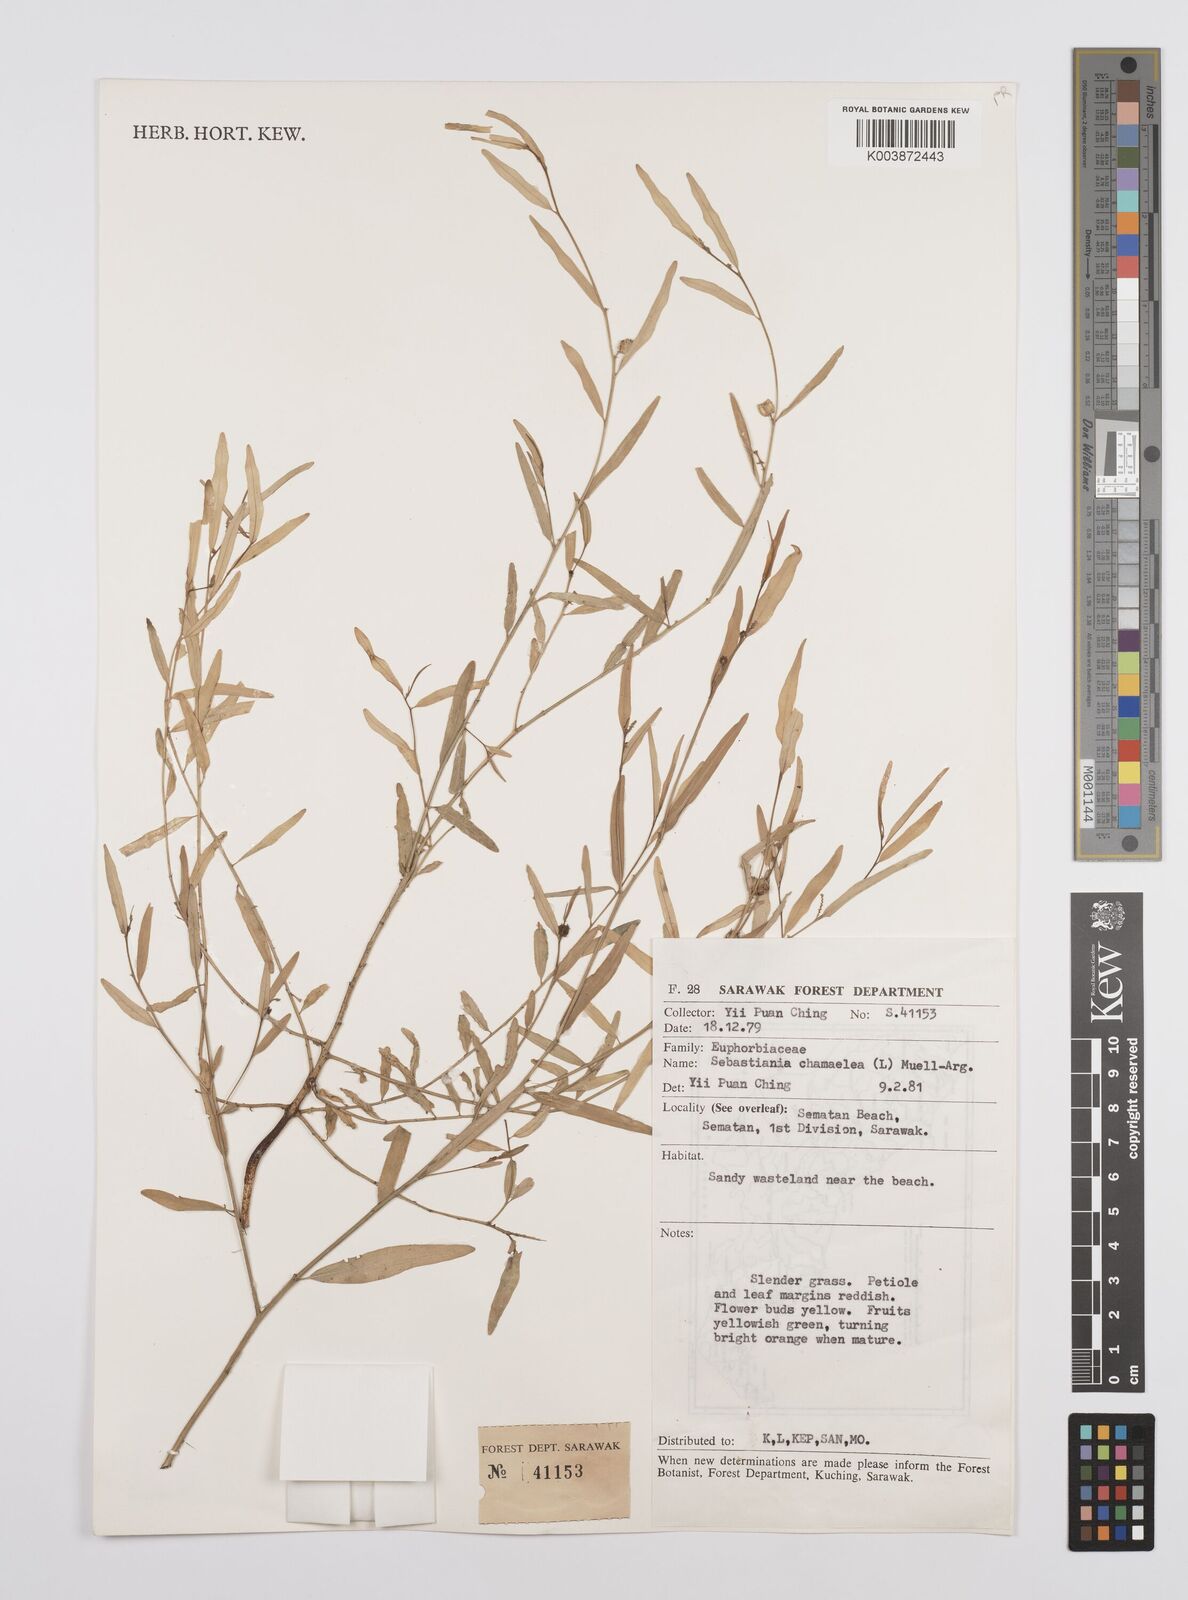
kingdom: Plantae
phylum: Tracheophyta
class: Magnoliopsida
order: Malpighiales
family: Euphorbiaceae
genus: Microstachys
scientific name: Microstachys chamaelea
